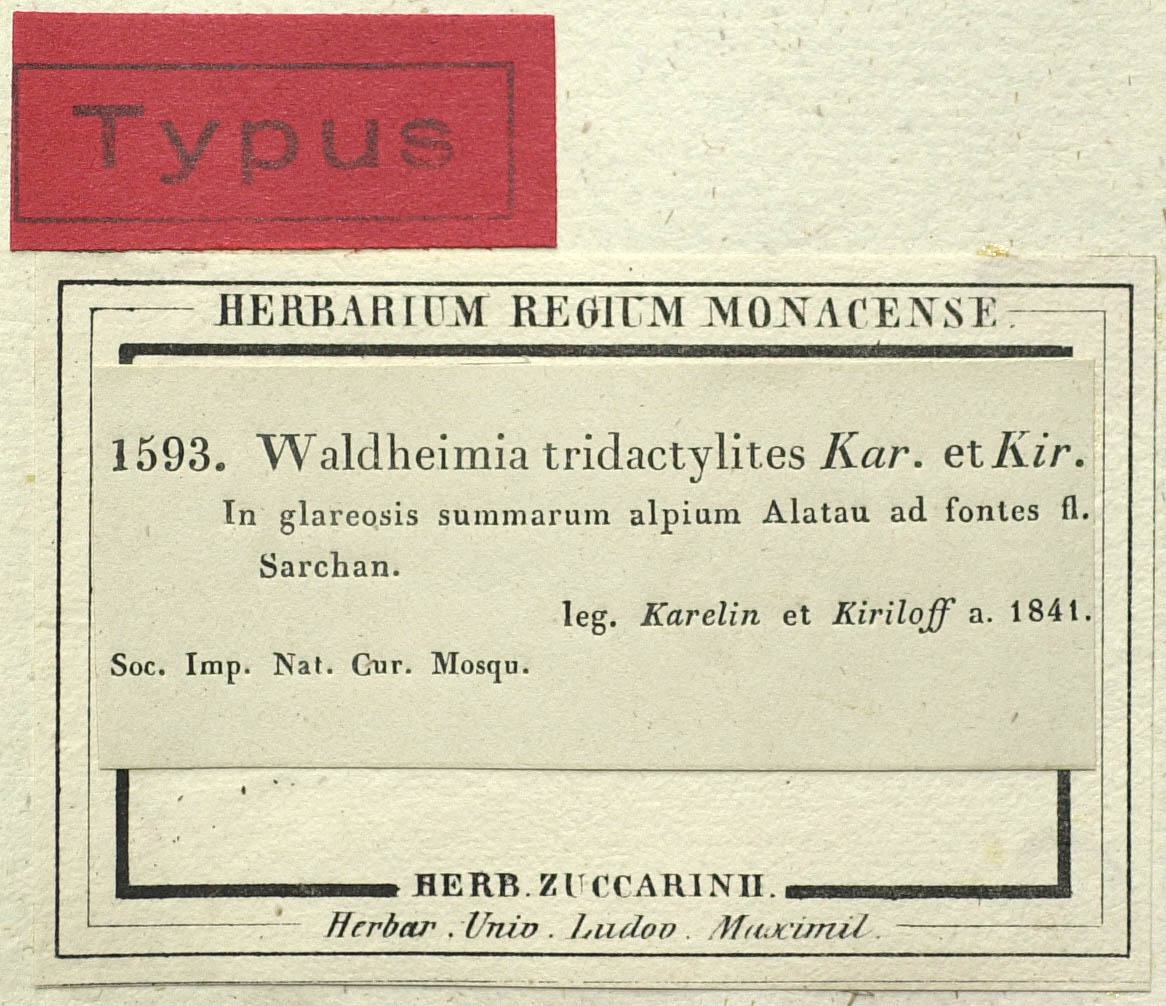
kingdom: Plantae
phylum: Tracheophyta
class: Magnoliopsida
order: Asterales
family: Asteraceae
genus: Allardia
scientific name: Allardia tridactylites
